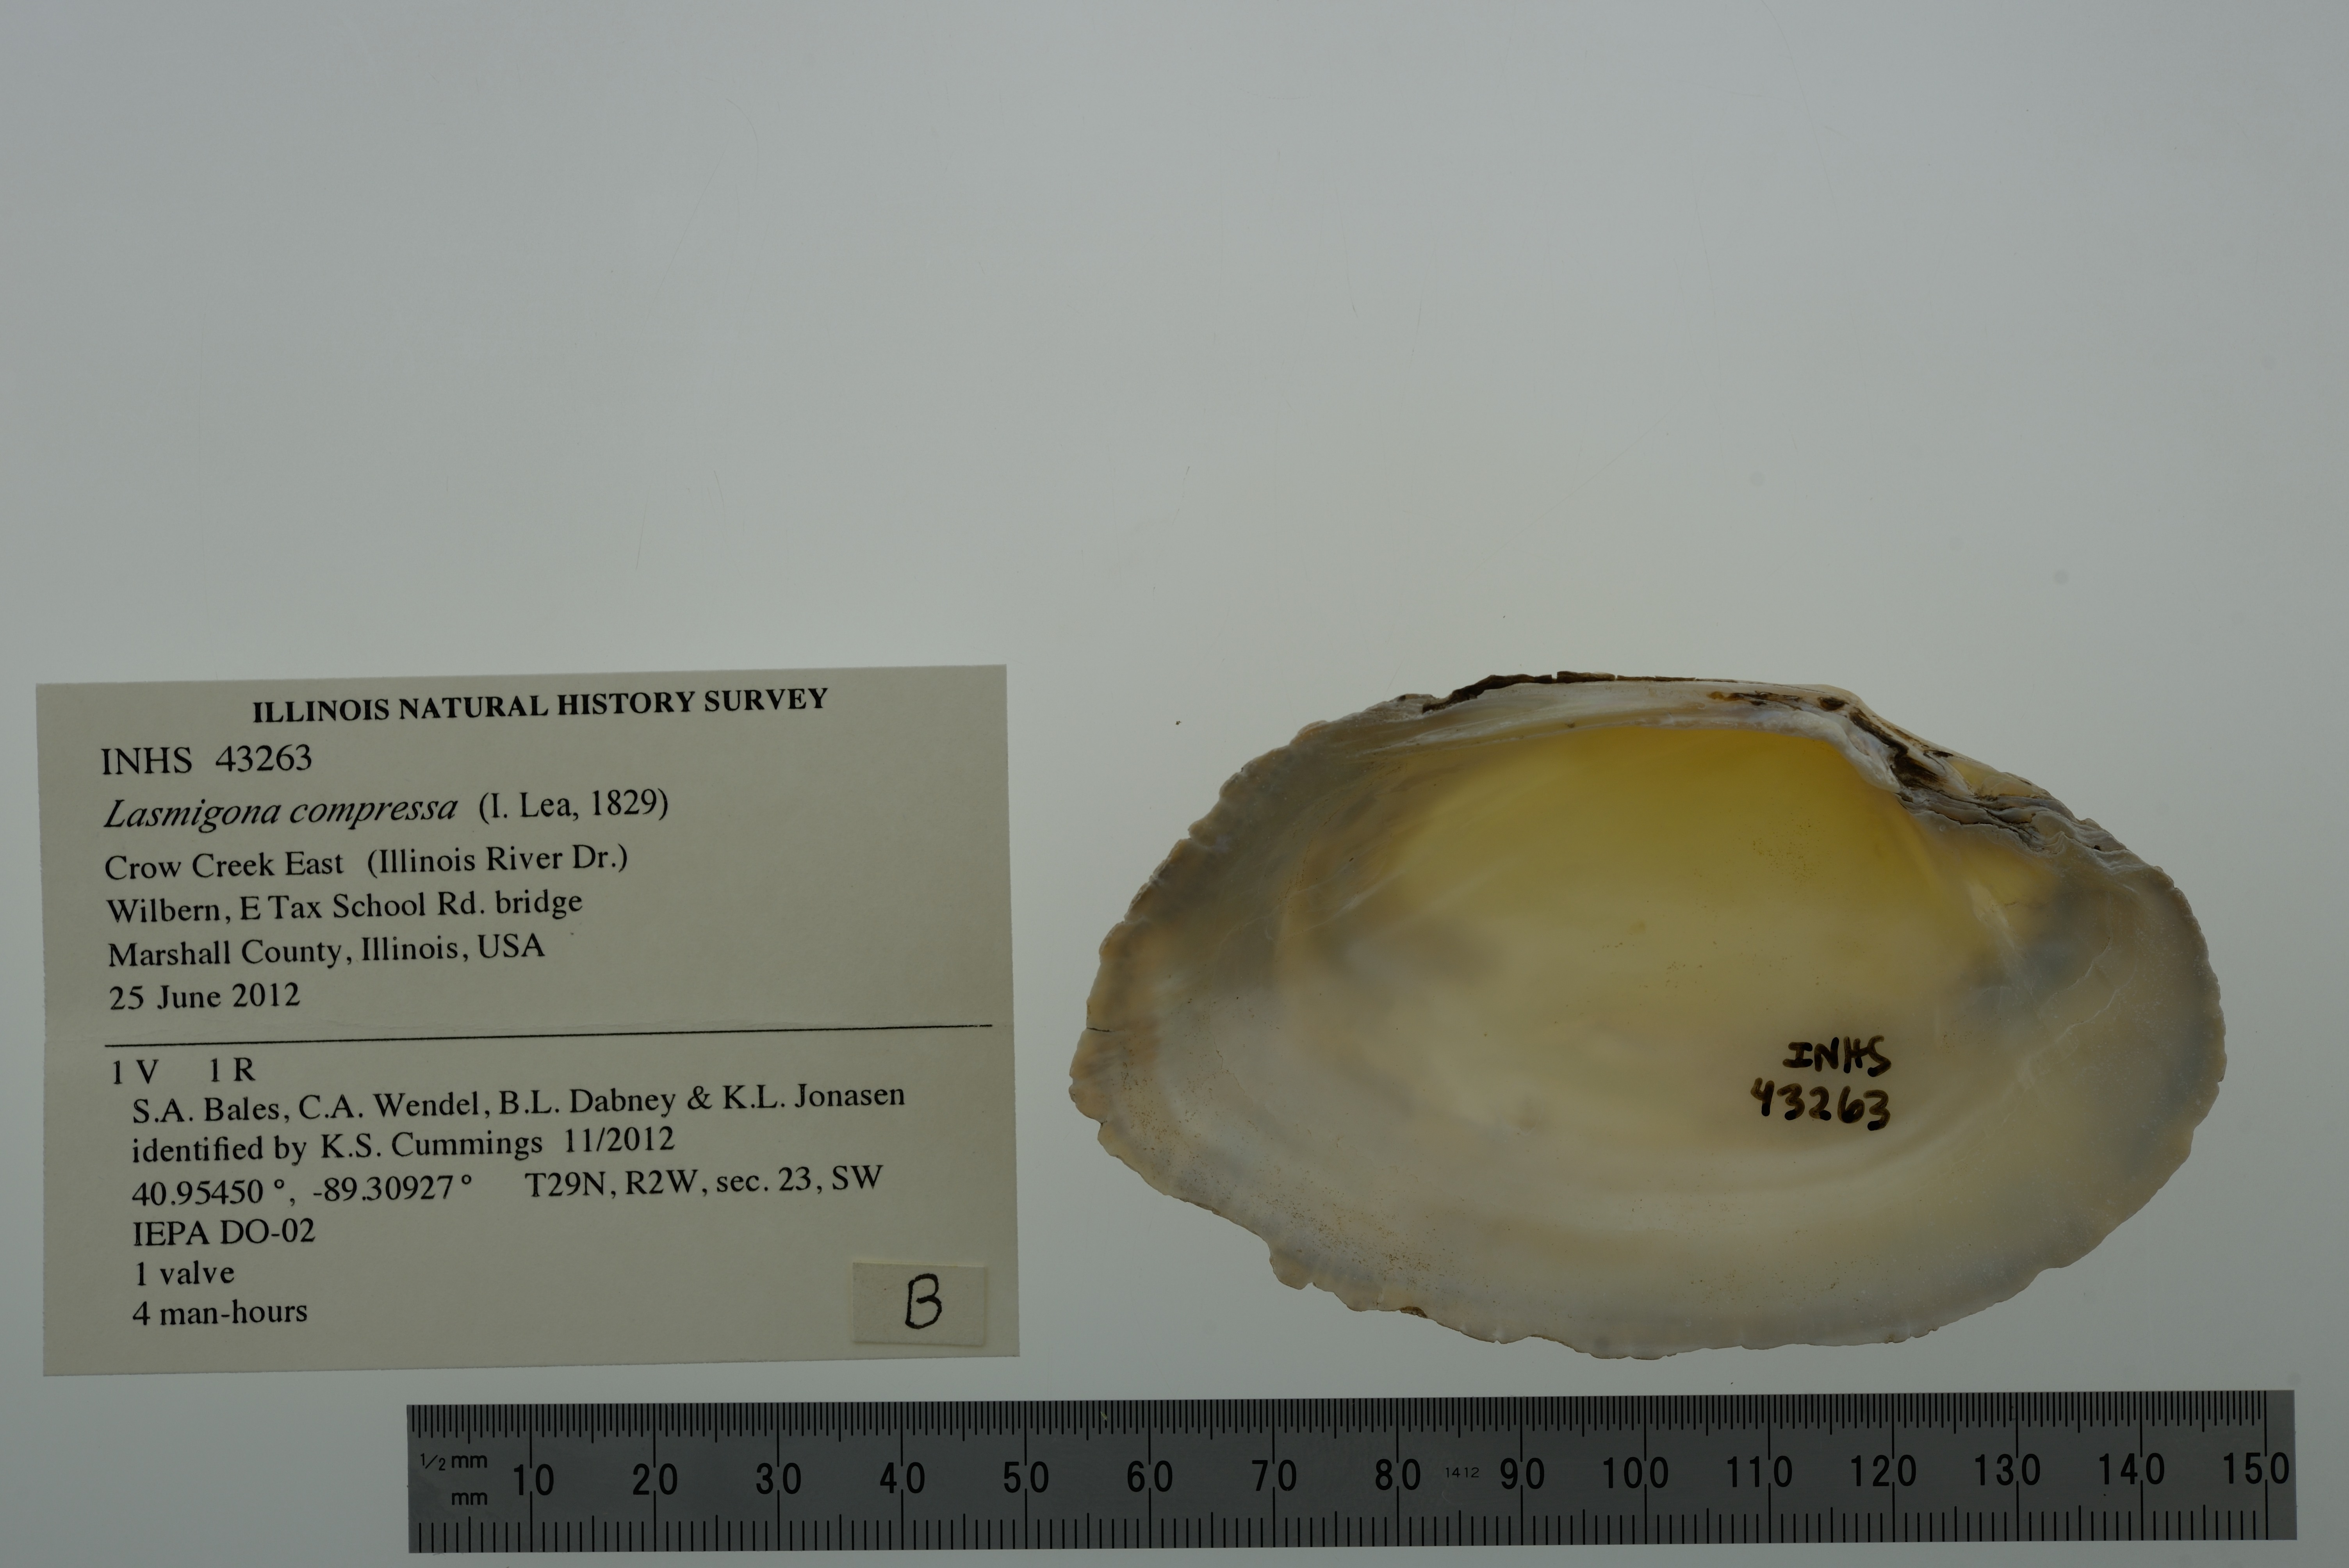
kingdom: Animalia
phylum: Mollusca
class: Bivalvia
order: Unionida
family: Unionidae
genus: Lasmigona
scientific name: Lasmigona compressa
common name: Creek heelsplitter
